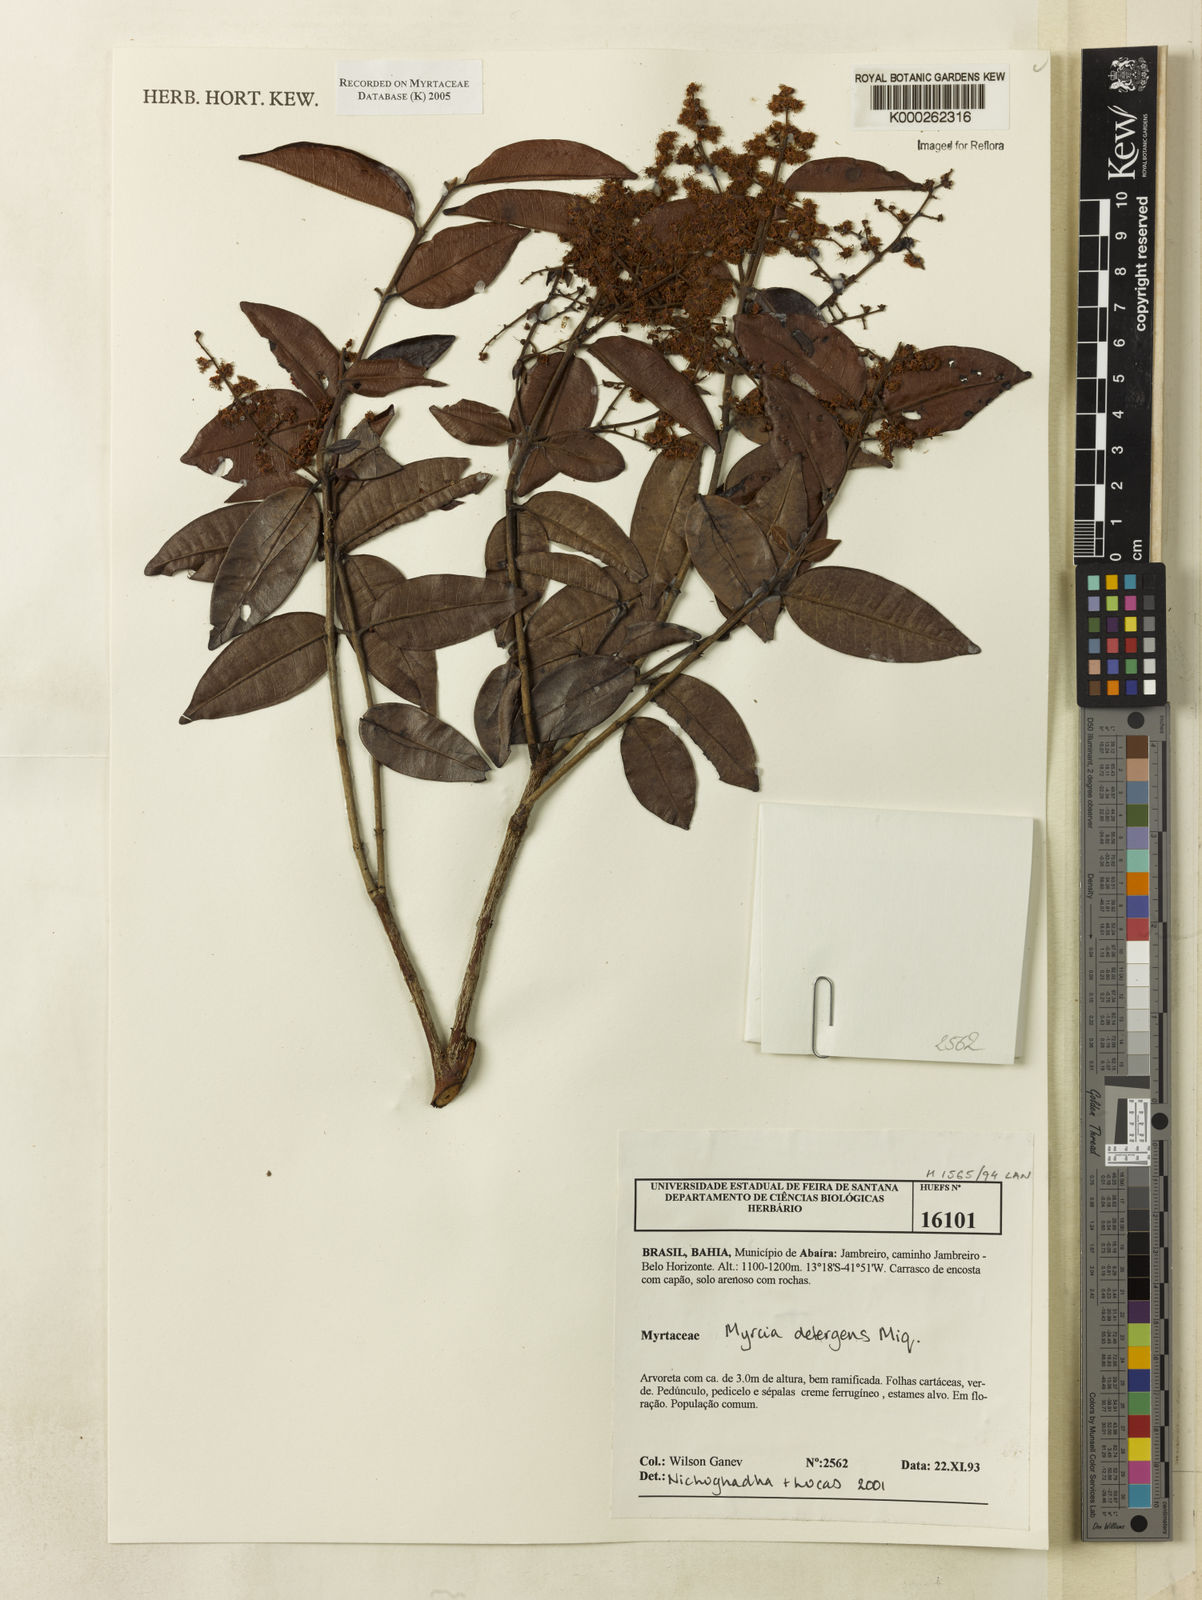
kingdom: Plantae
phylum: Tracheophyta
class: Magnoliopsida
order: Myrtales
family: Myrtaceae
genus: Myrcia
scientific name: Myrcia amazonica
